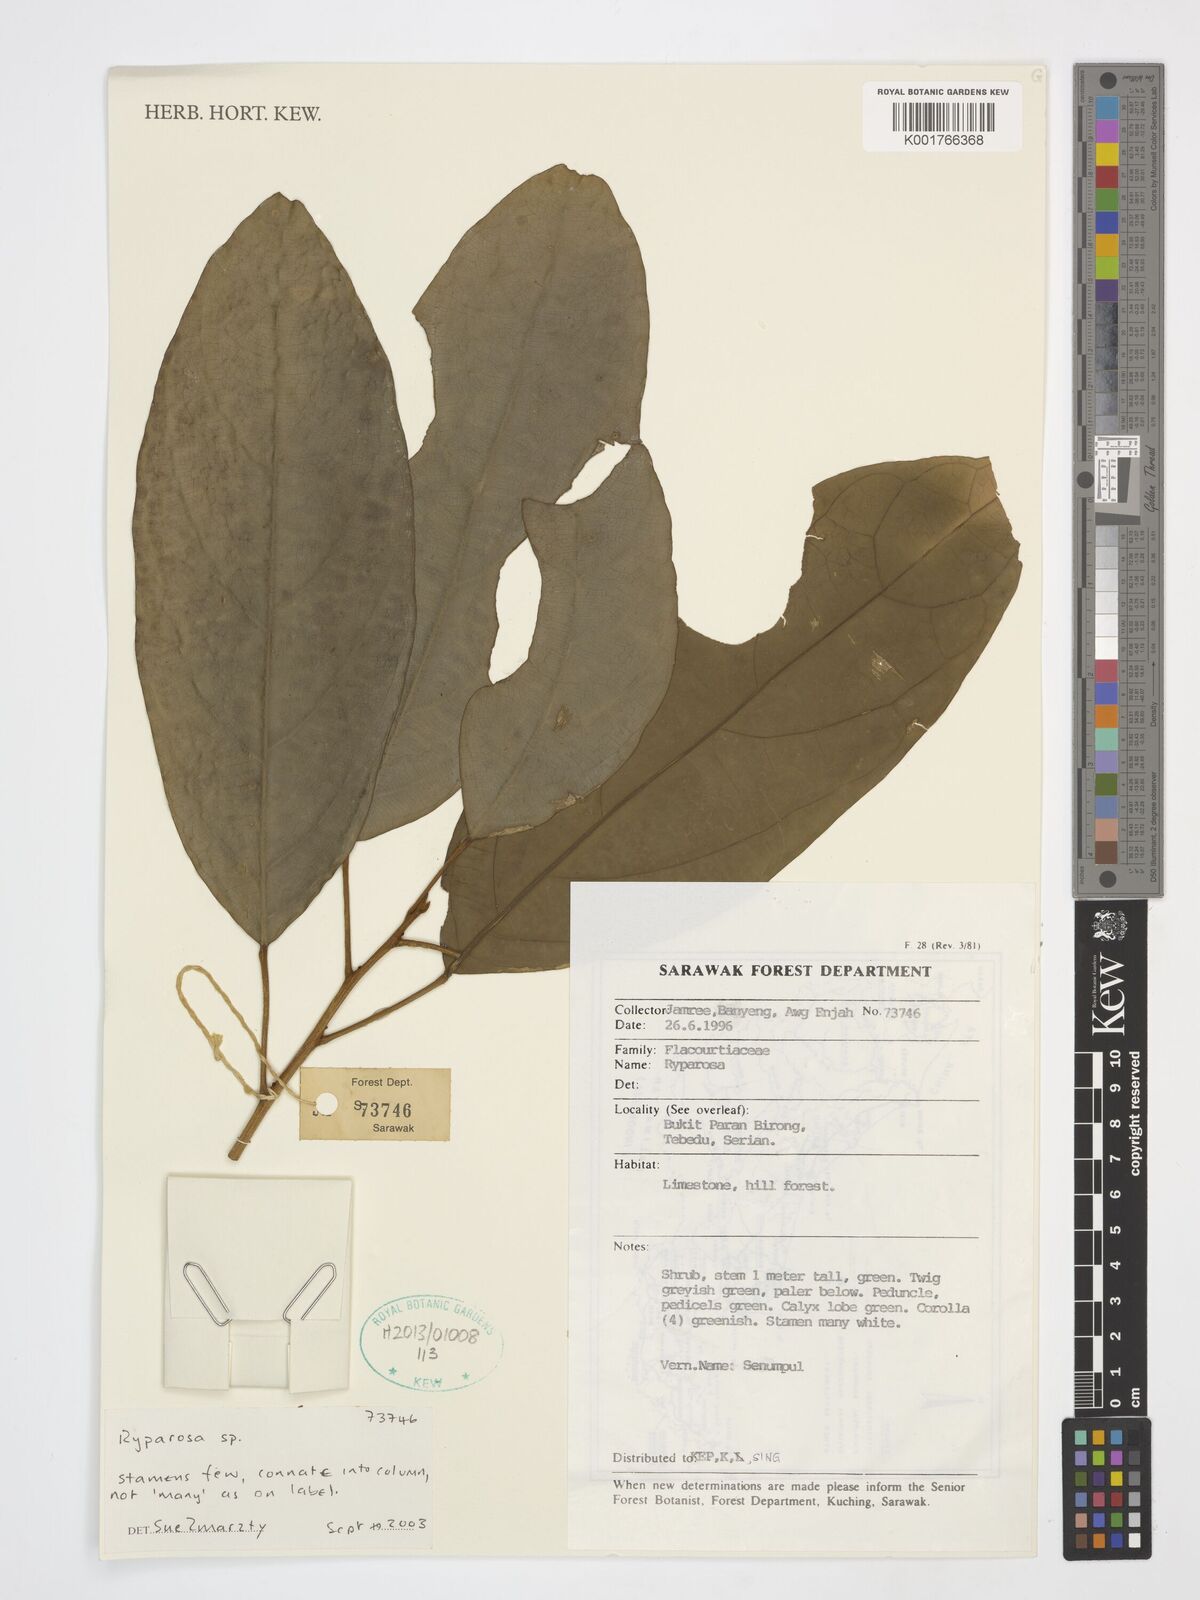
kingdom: Plantae
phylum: Tracheophyta
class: Magnoliopsida
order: Malpighiales
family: Achariaceae
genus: Ryparosa
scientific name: Ryparosa
